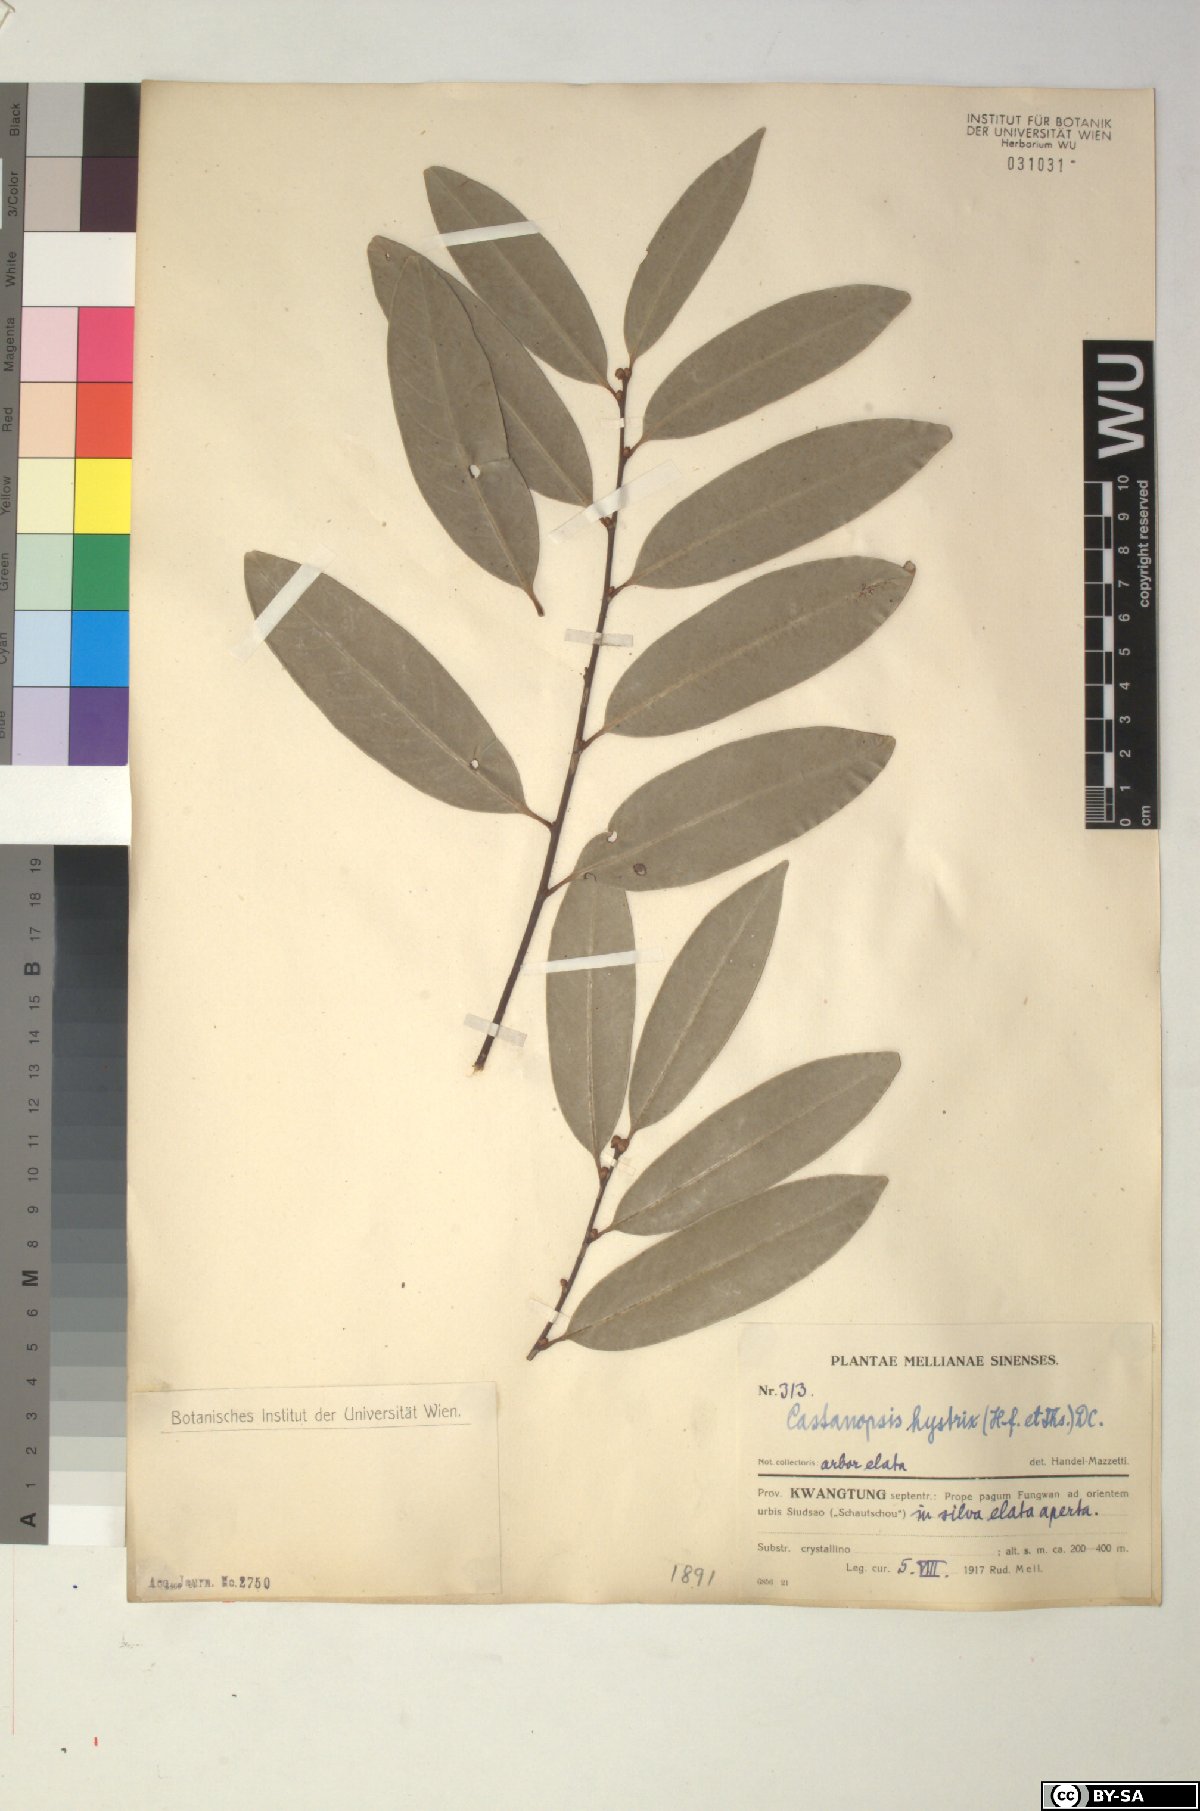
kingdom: Plantae
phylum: Tracheophyta
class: Magnoliopsida
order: Fagales
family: Fagaceae
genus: Castanopsis
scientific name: Castanopsis hystrix
